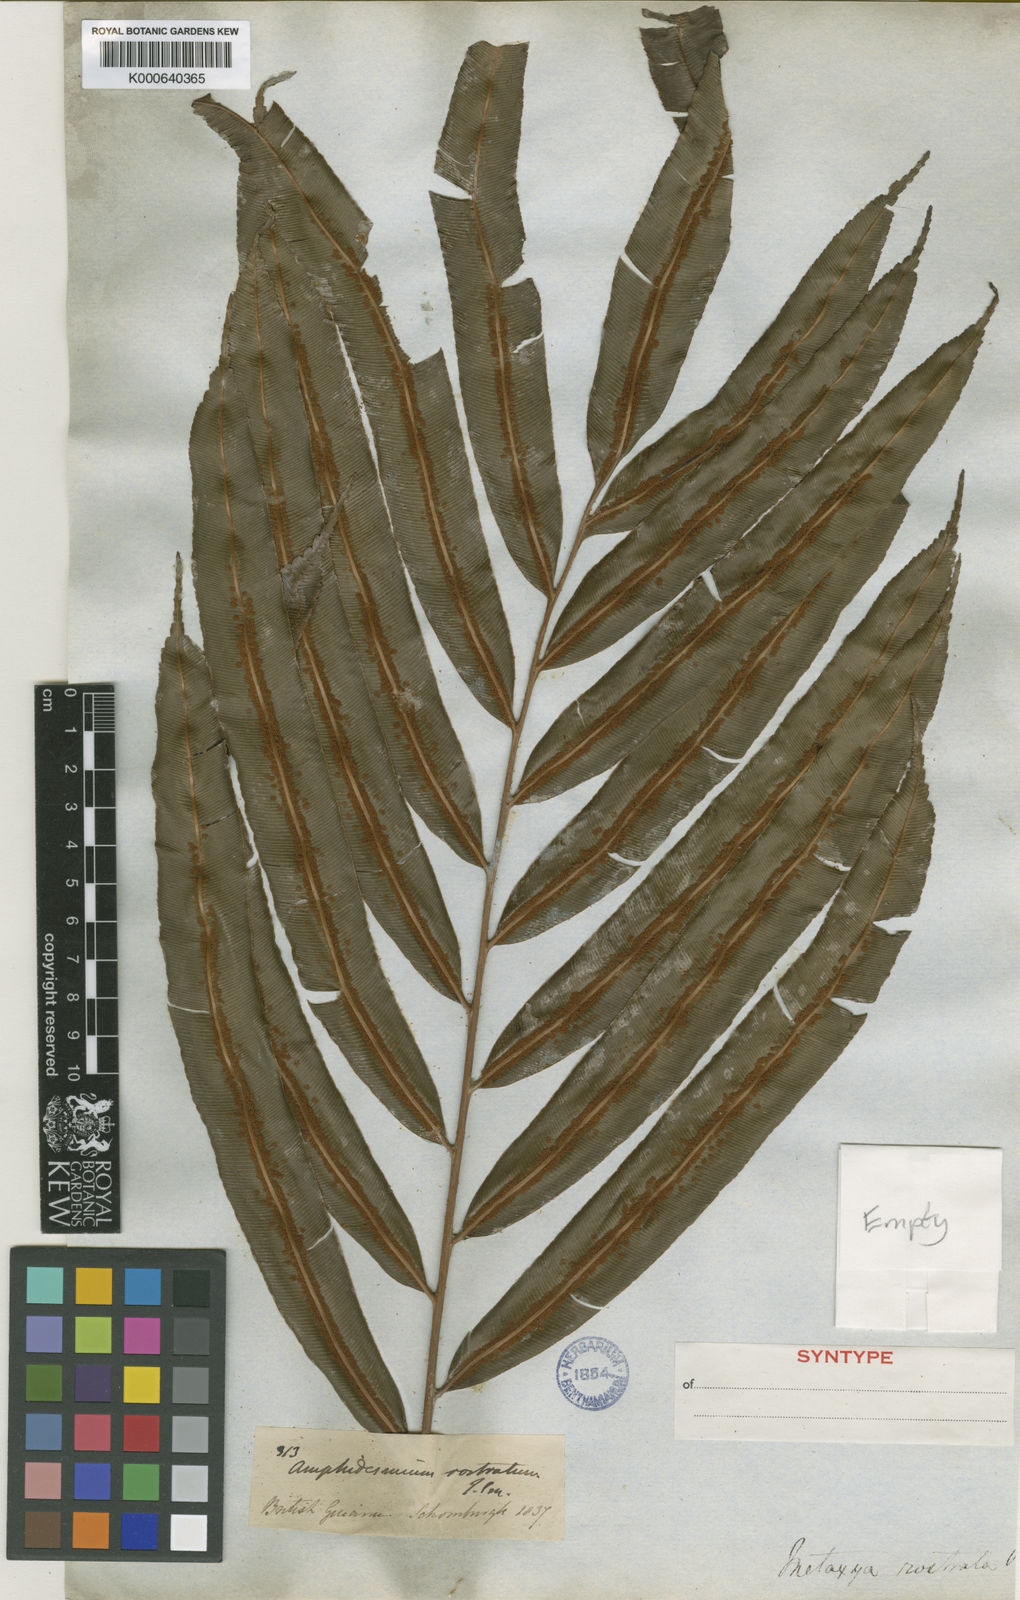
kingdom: Plantae
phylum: Tracheophyta
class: Polypodiopsida
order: Cyatheales
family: Metaxyaceae
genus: Metaxya
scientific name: Metaxya rostrata
